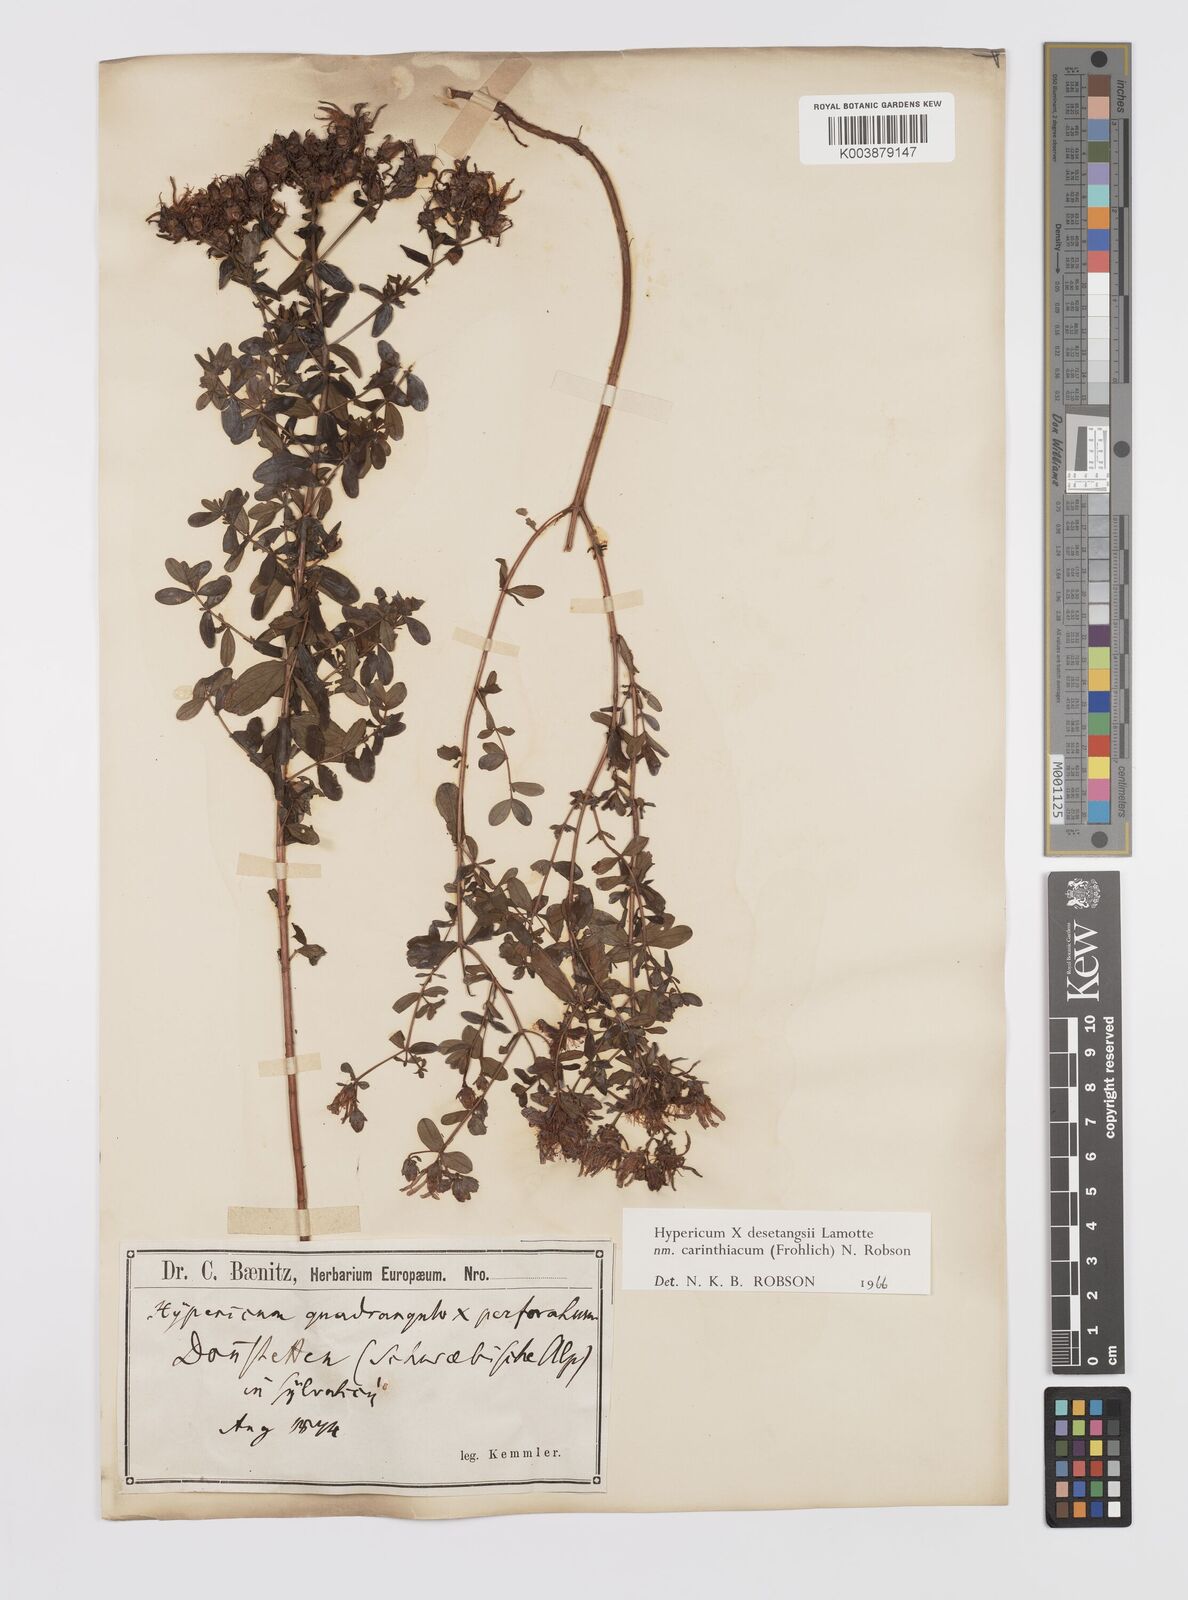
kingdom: Plantae
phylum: Tracheophyta
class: Magnoliopsida
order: Malpighiales
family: Hypericaceae
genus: Hypericum
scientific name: Hypericum maculatum
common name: Imperforate st. john's-wort
